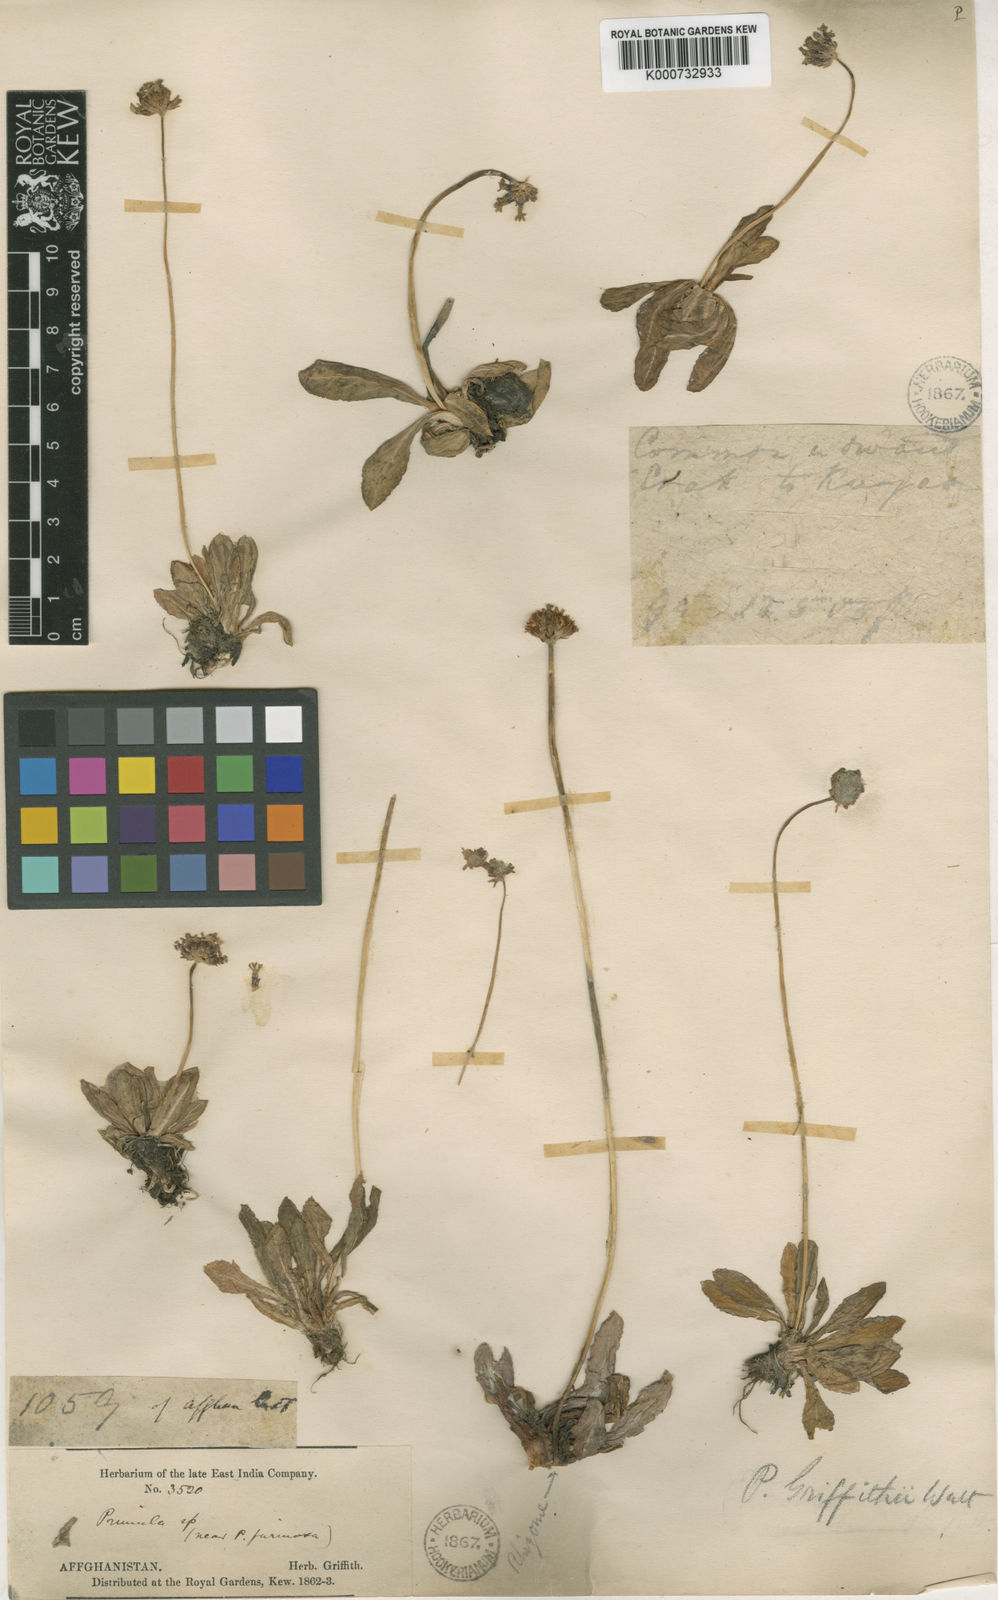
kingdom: Plantae
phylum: Tracheophyta
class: Magnoliopsida
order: Ericales
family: Primulaceae
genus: Primula
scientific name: Primula capitellata
